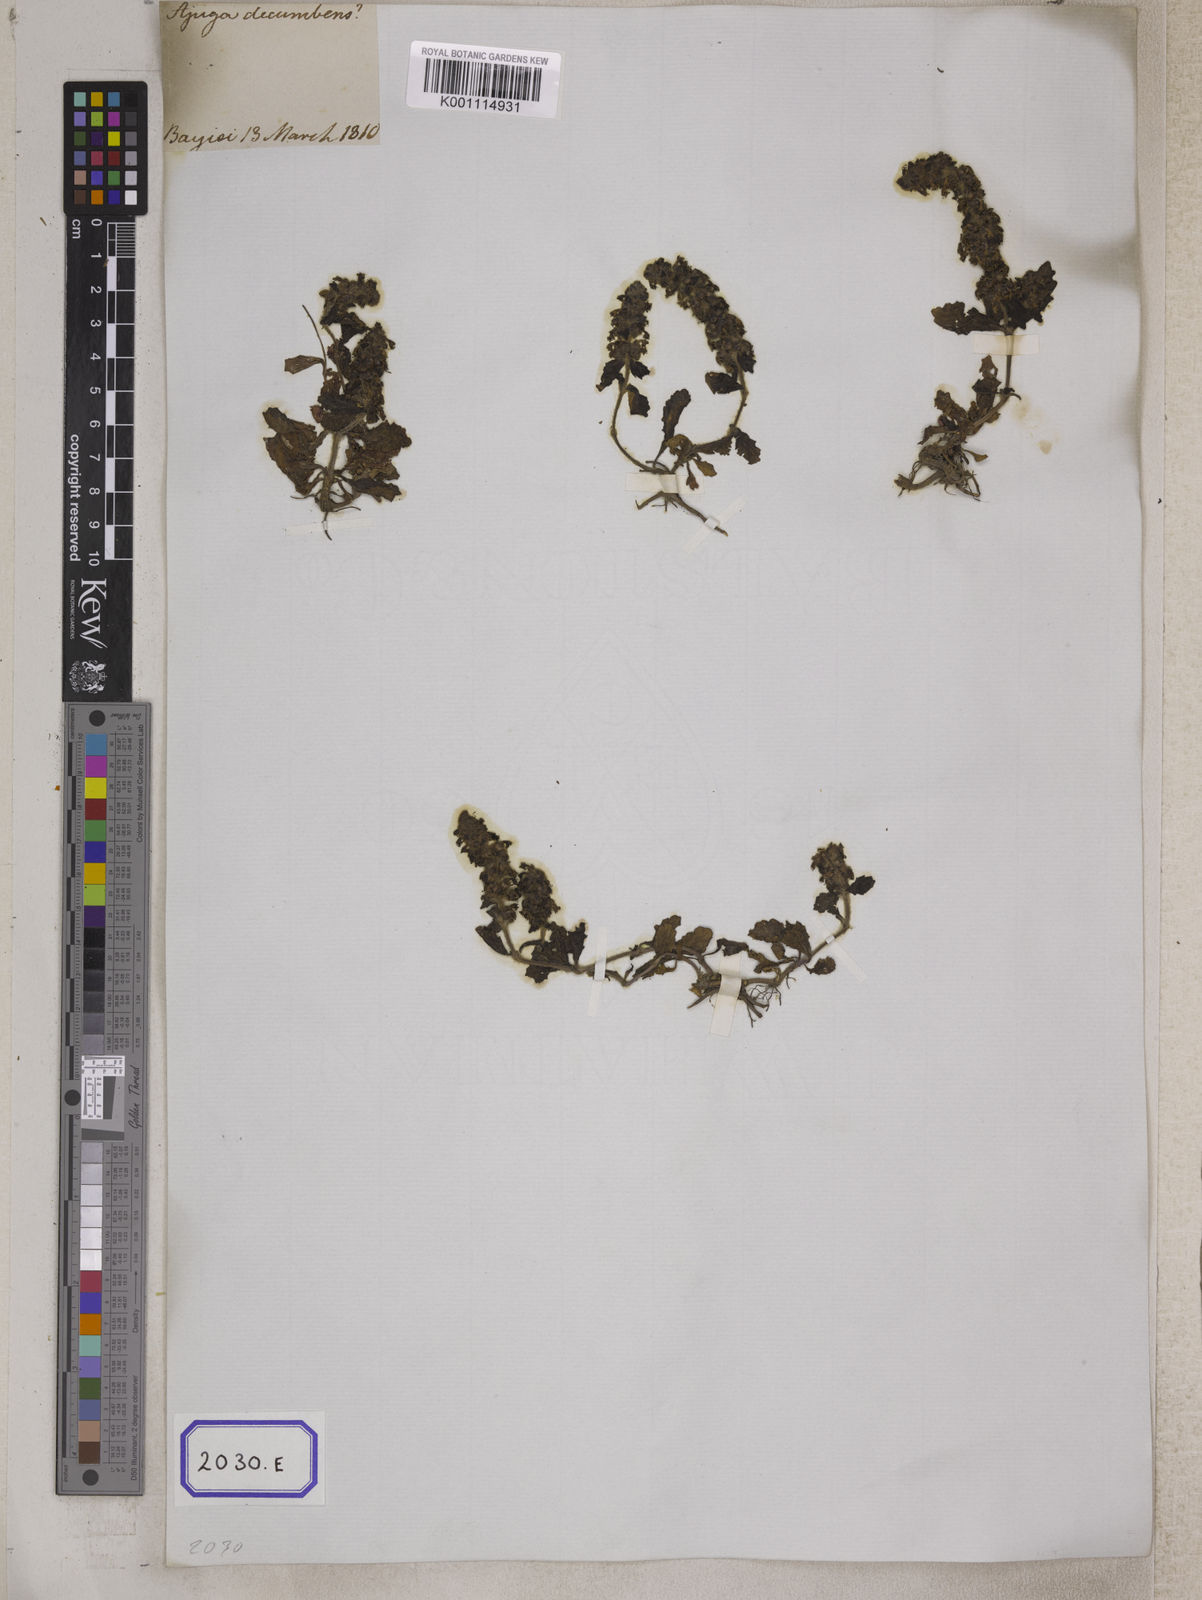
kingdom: Plantae
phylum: Tracheophyta
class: Magnoliopsida
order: Lamiales
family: Lamiaceae
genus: Ajuga
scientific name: Ajuga
